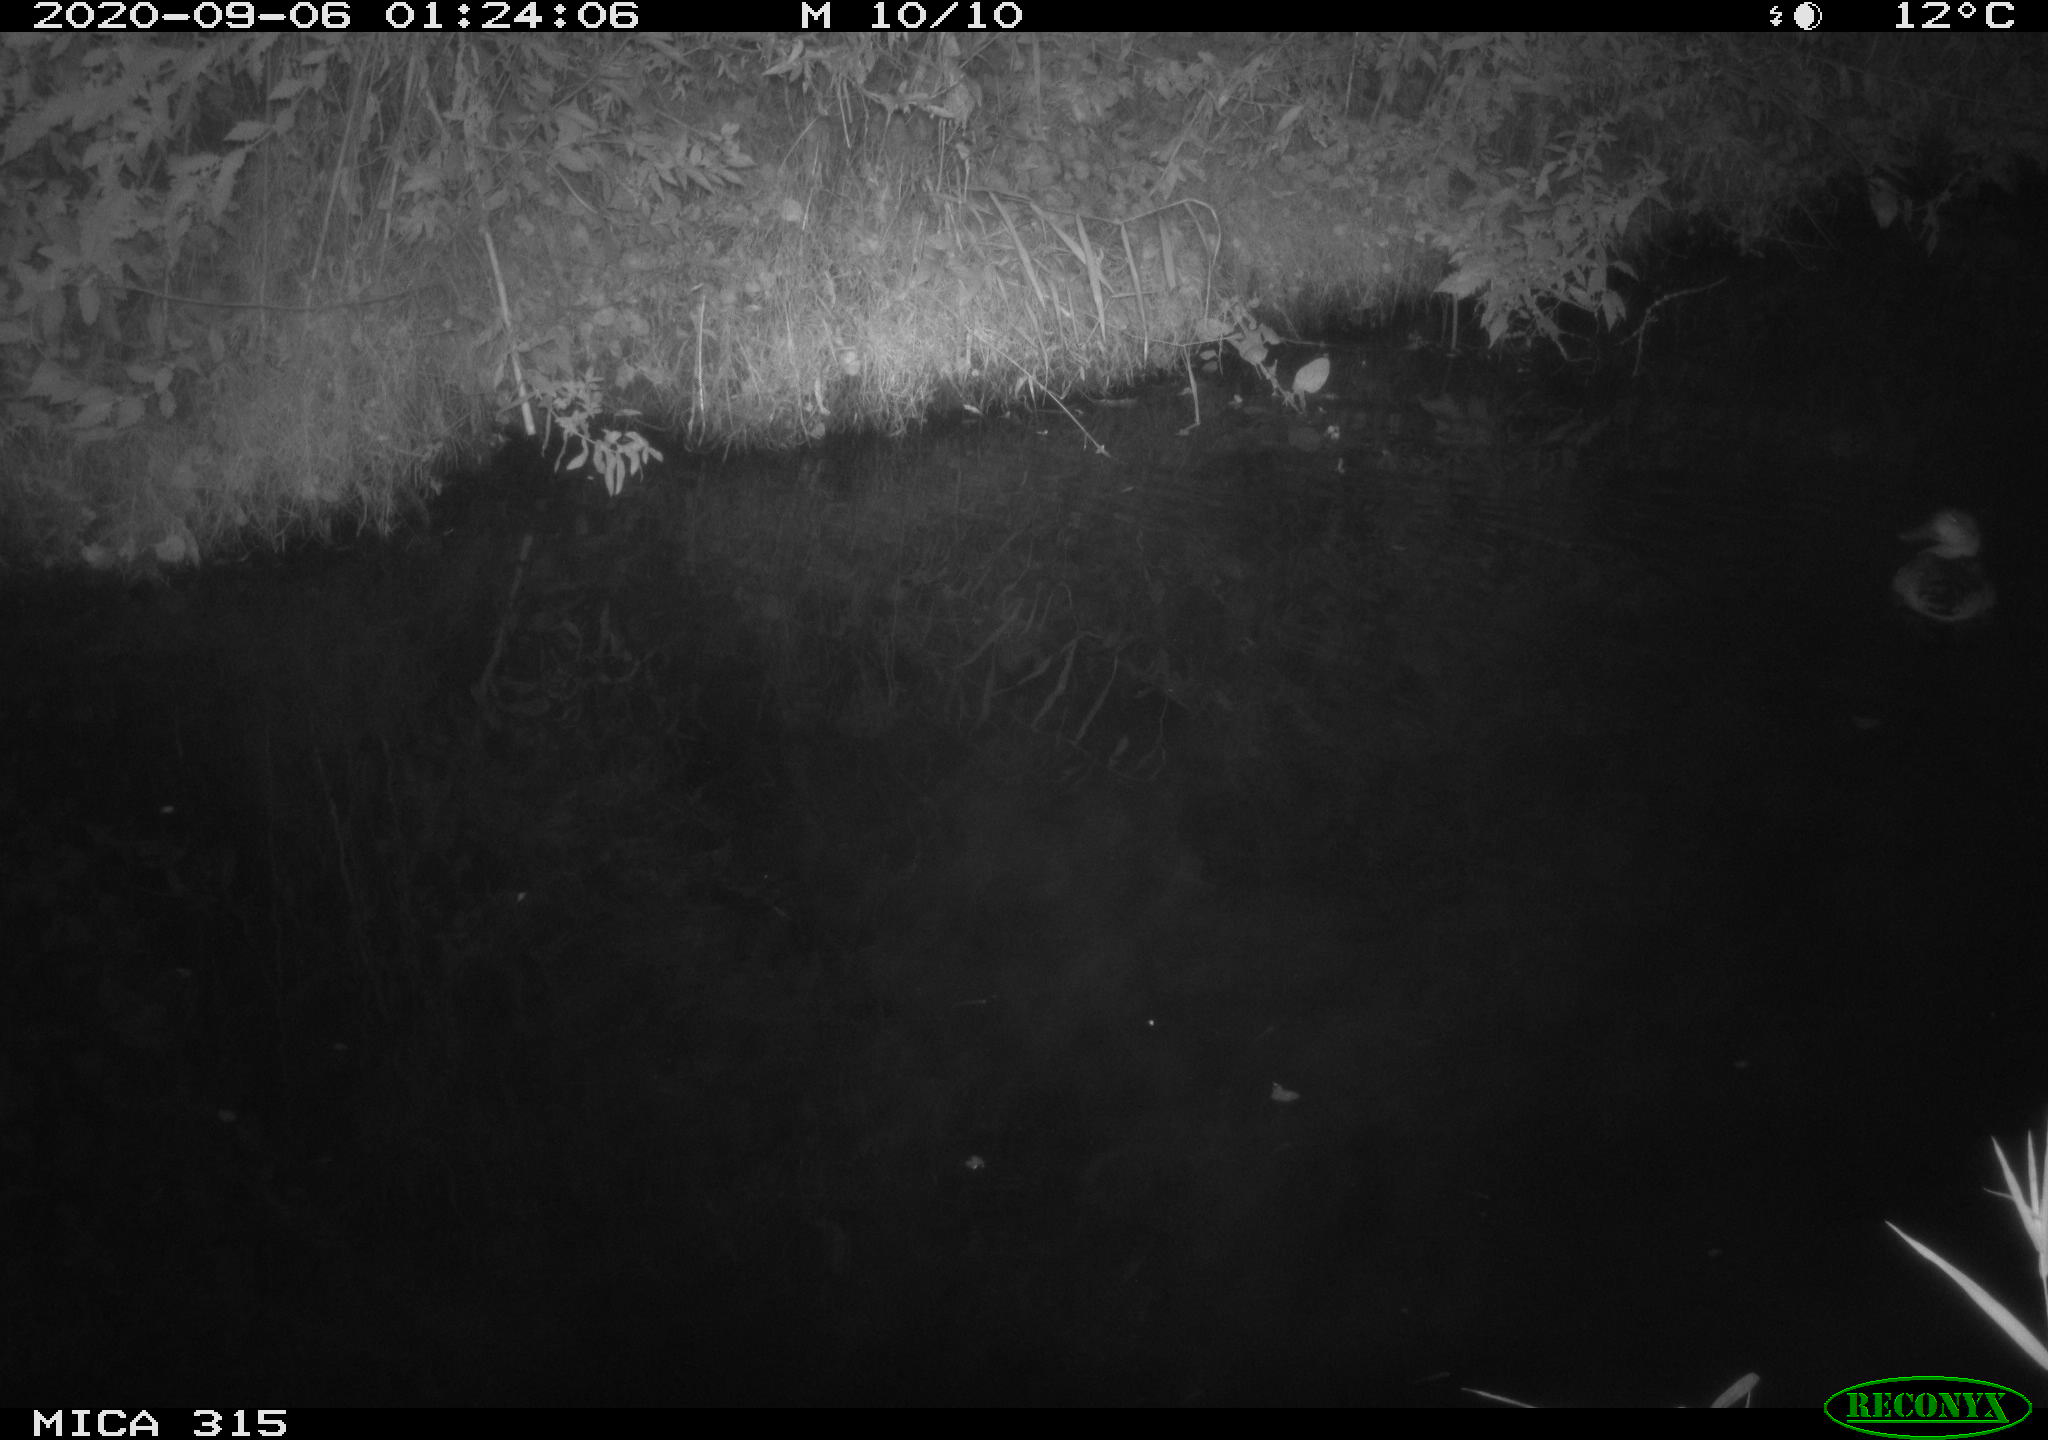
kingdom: Animalia
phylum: Chordata
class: Aves
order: Anseriformes
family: Anatidae
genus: Anas
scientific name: Anas platyrhynchos
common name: Mallard
